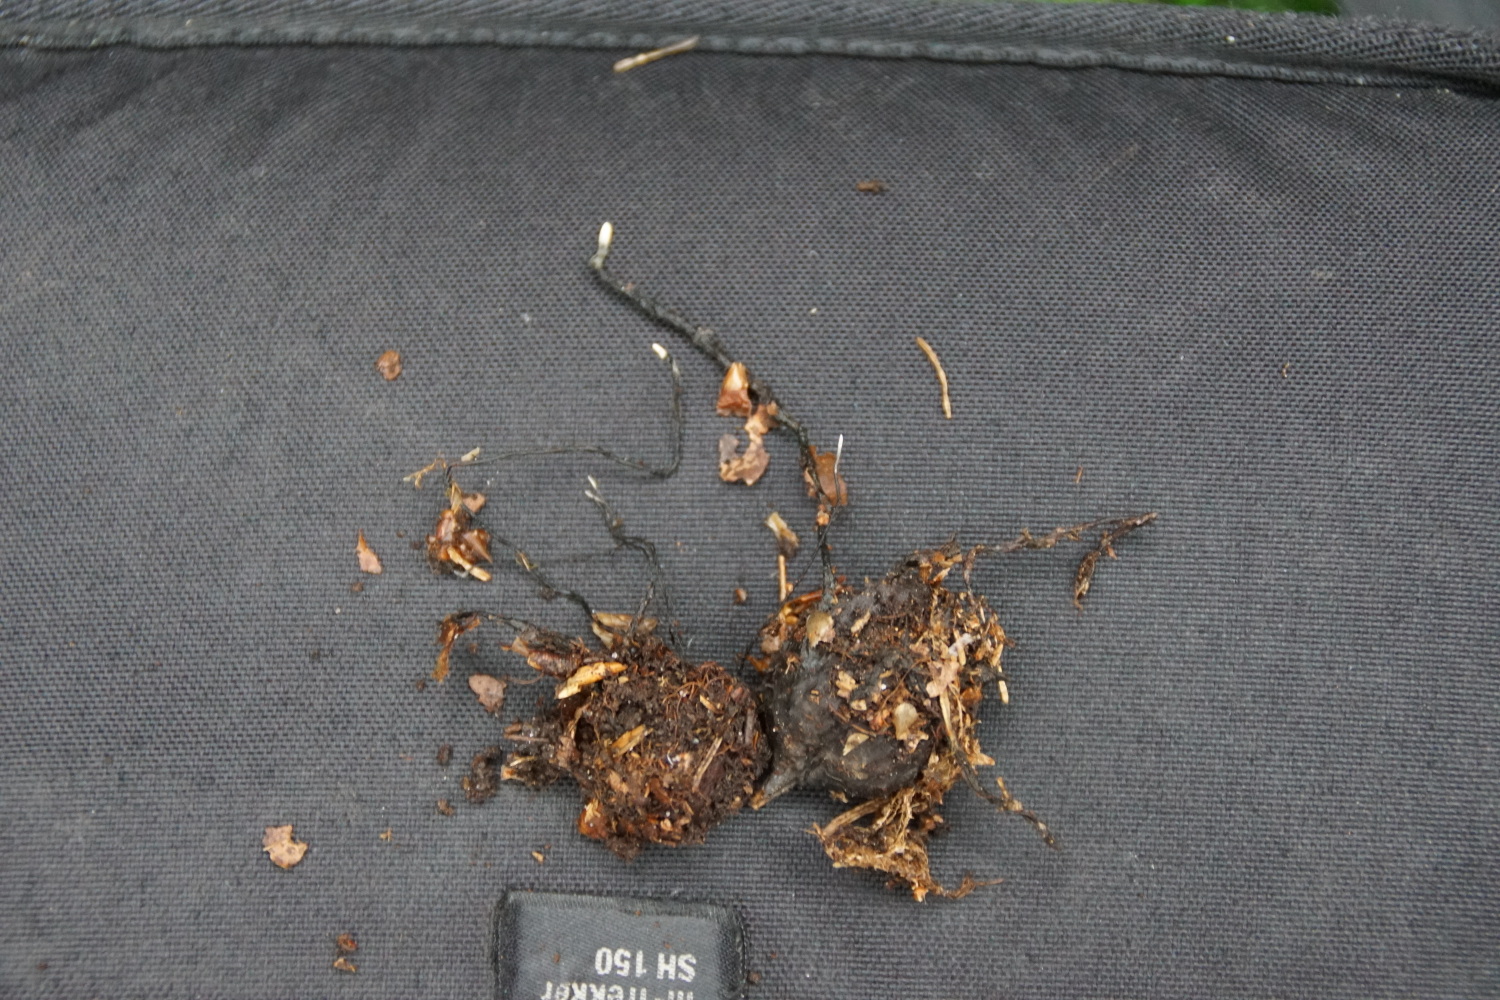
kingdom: Fungi
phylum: Ascomycota
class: Sordariomycetes
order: Xylariales
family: Xylariaceae
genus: Xylaria
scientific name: Xylaria carpophila
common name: bogskål-stødsvamp
